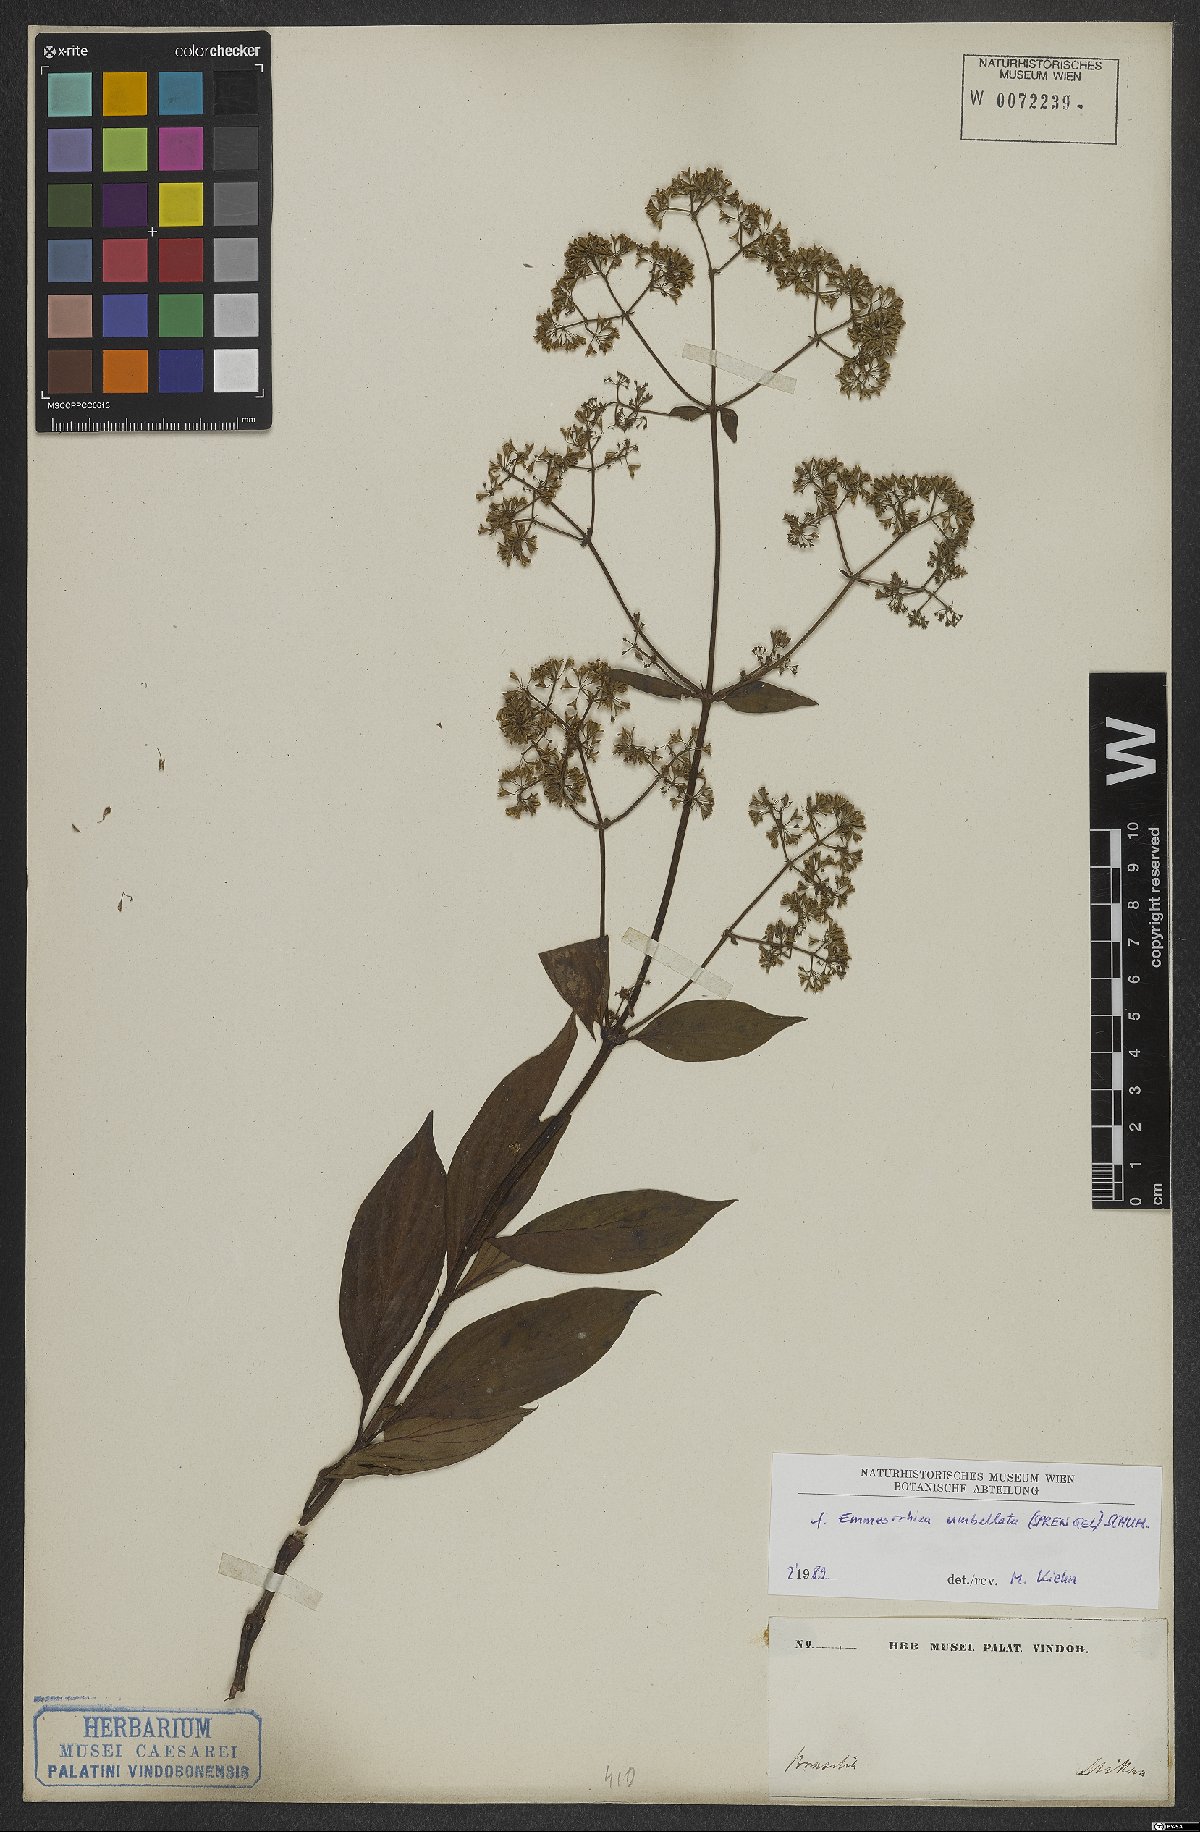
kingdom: Plantae
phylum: Tracheophyta
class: Magnoliopsida
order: Gentianales
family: Rubiaceae
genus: Emmeorhiza
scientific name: Emmeorhiza umbellata
